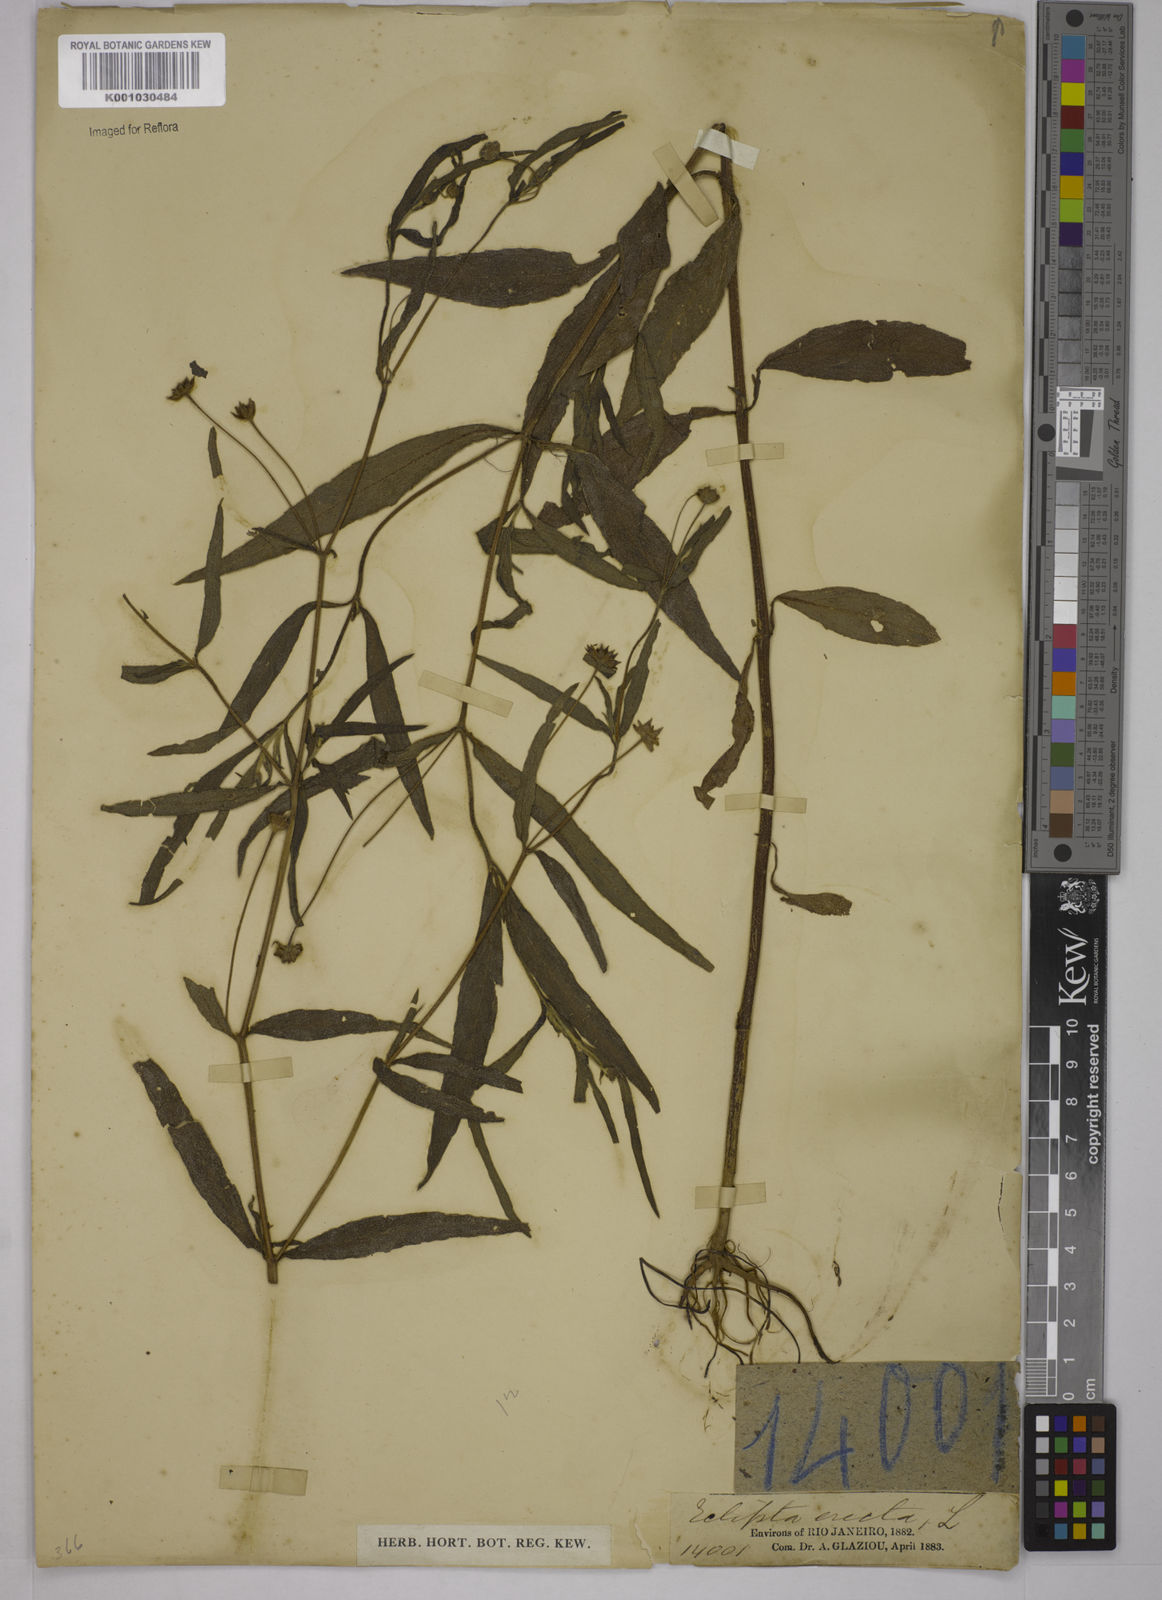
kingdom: Plantae
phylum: Tracheophyta
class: Magnoliopsida
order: Asterales
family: Asteraceae
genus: Eclipta
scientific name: Eclipta prostrata
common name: False daisy
